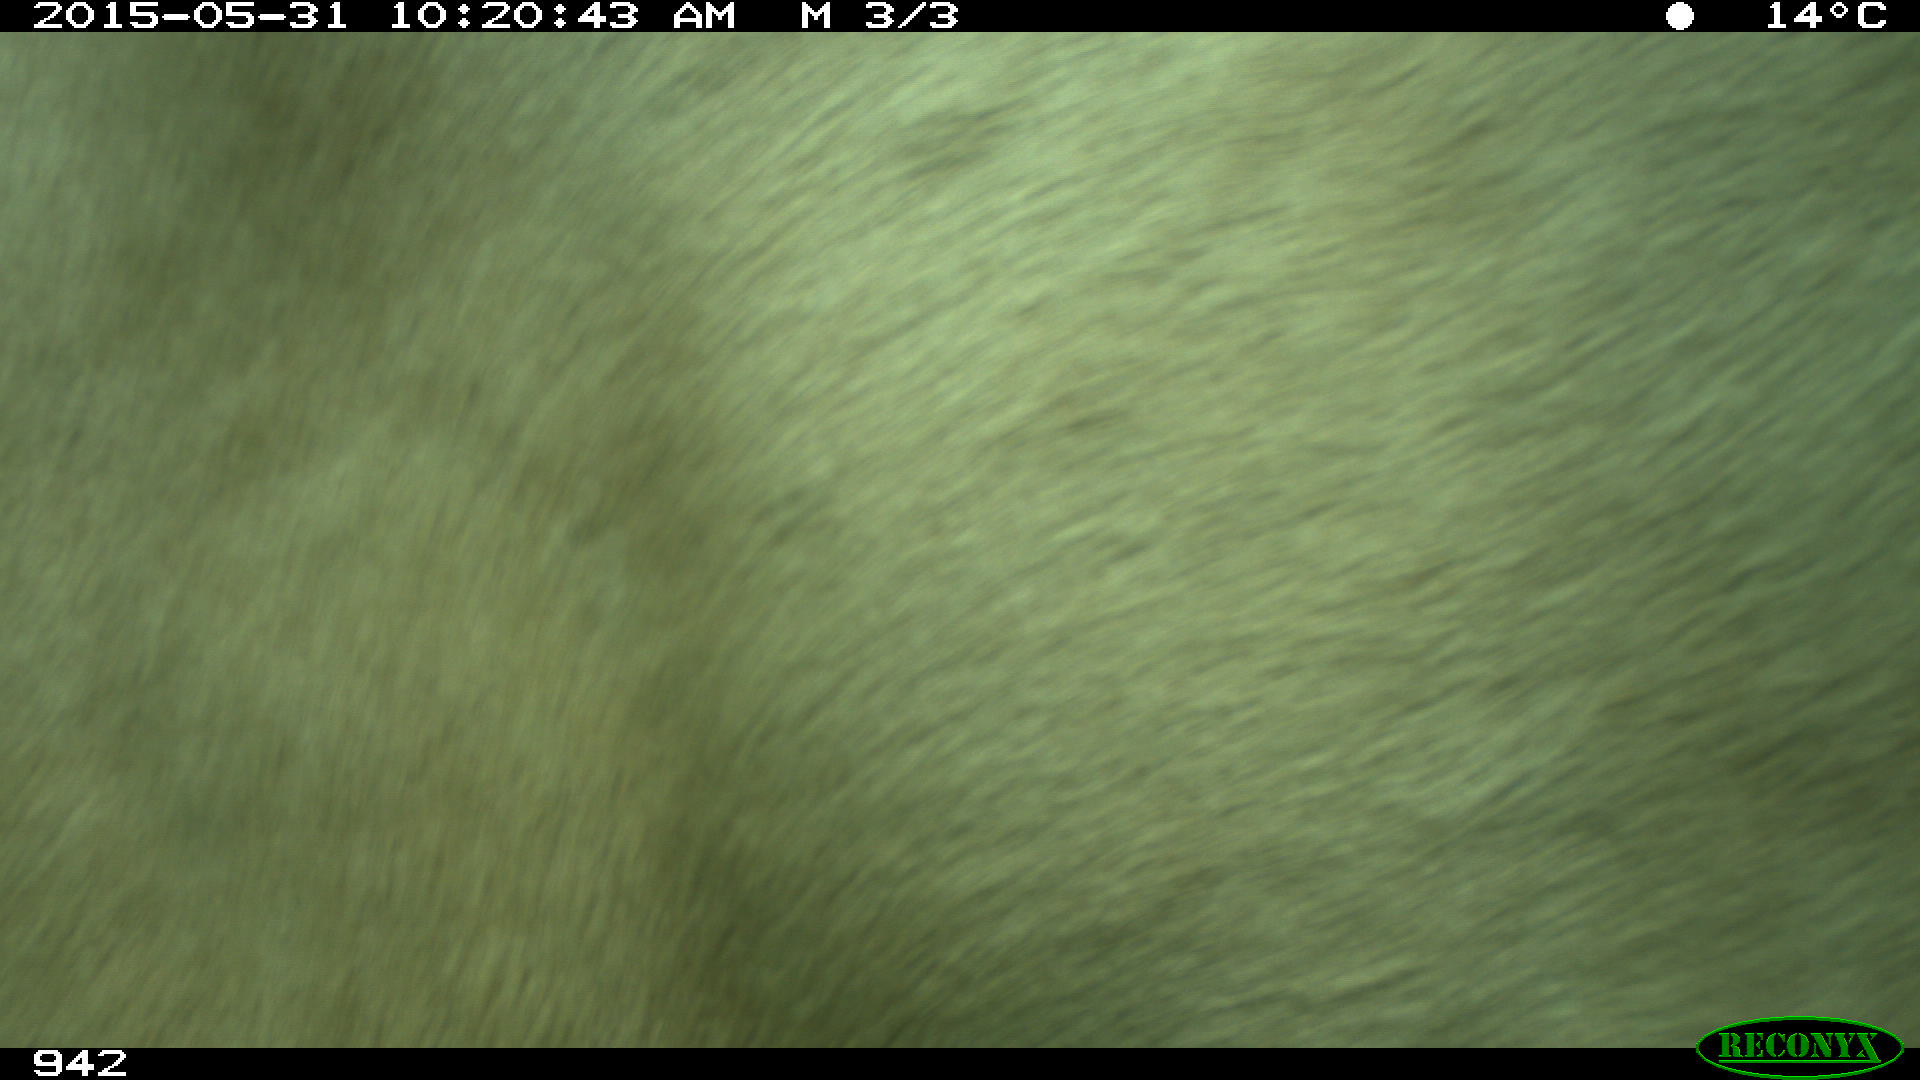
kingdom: Animalia
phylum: Chordata
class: Mammalia
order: Artiodactyla
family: Bovidae
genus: Bos
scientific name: Bos taurus
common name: Domesticated cattle
